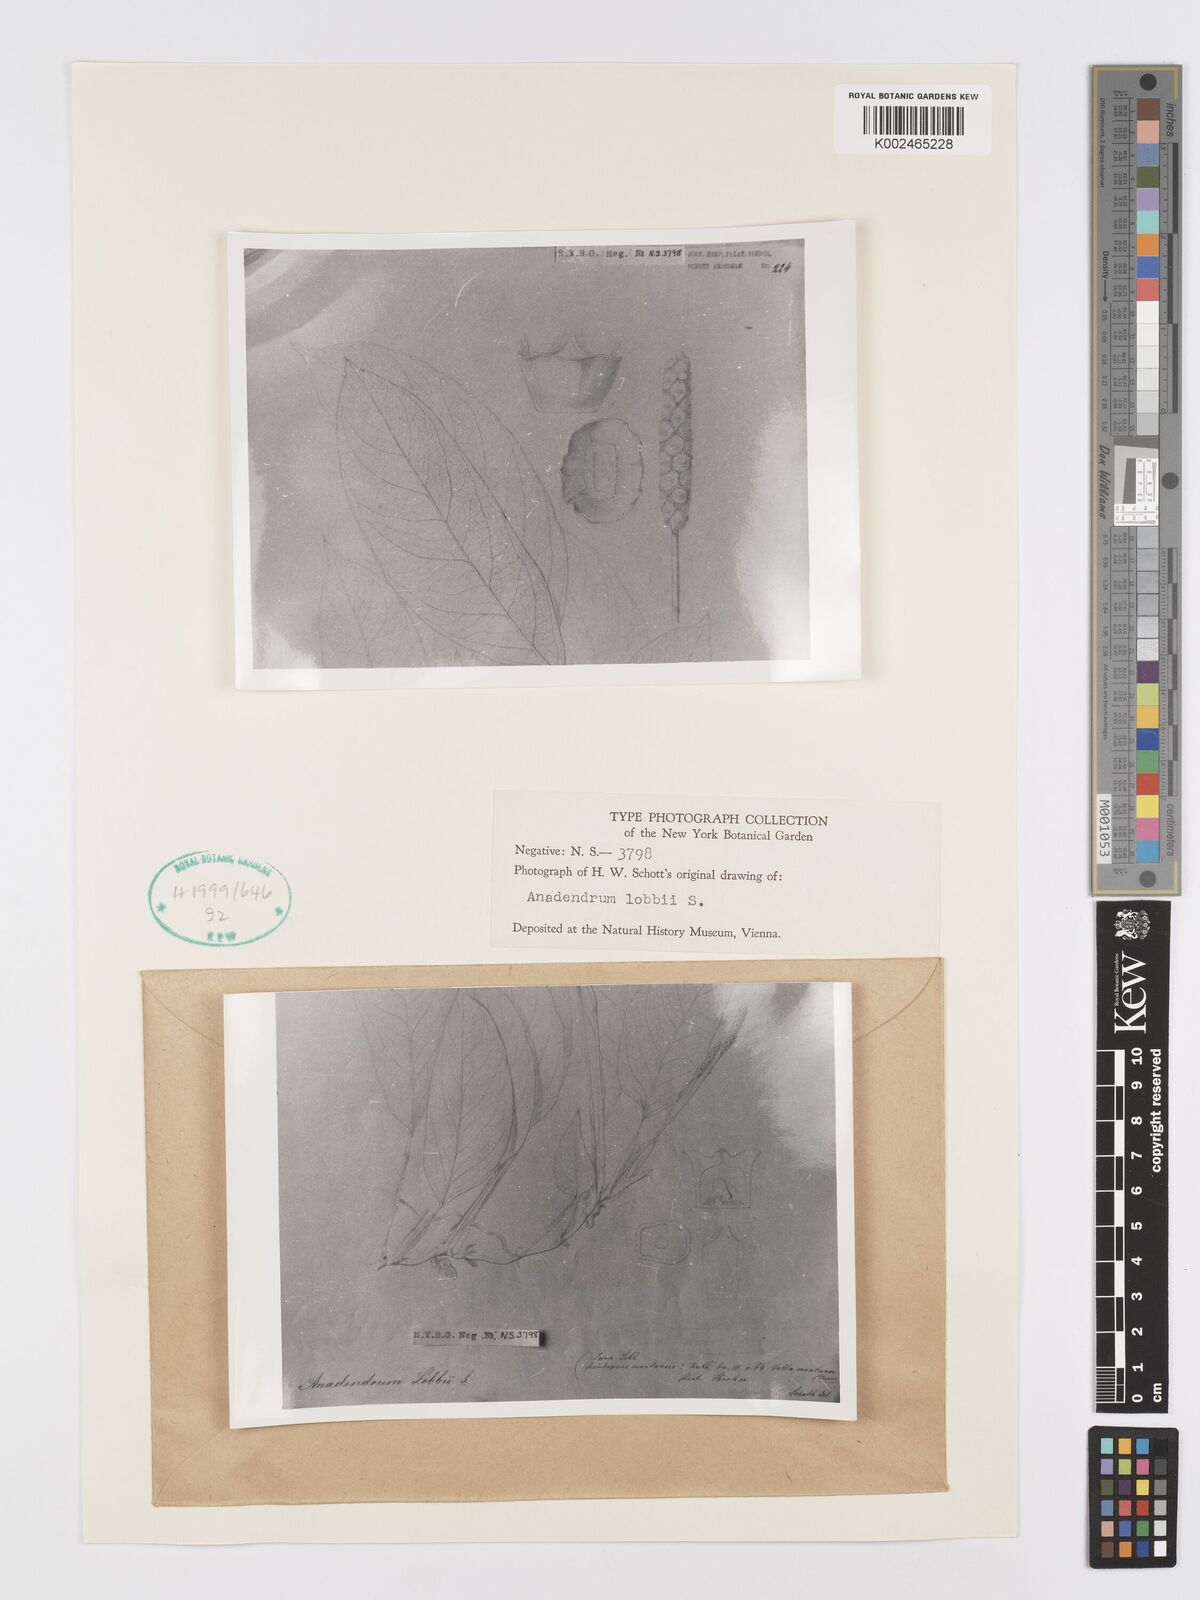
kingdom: Plantae
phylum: Tracheophyta
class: Liliopsida
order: Alismatales
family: Araceae
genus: Anadendrum
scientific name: Anadendrum microstachyum
